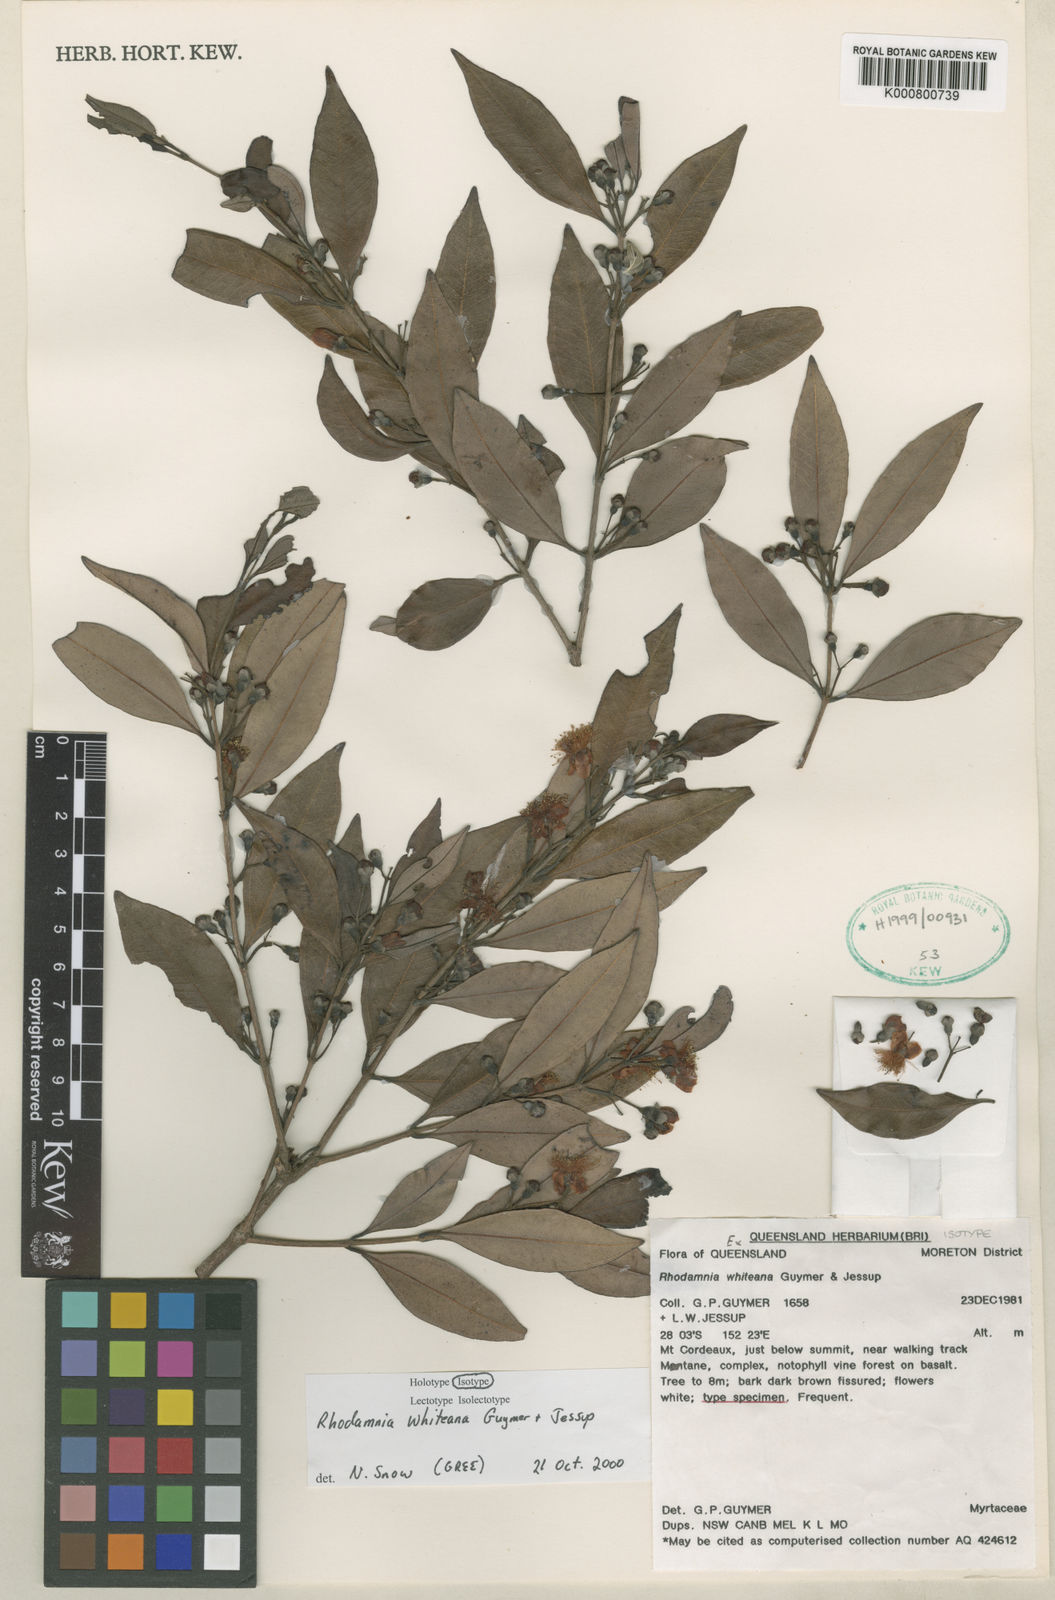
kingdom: Plantae
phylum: Tracheophyta
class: Magnoliopsida
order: Myrtales
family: Myrtaceae
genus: Rhodamnia
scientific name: Rhodamnia whiteana
